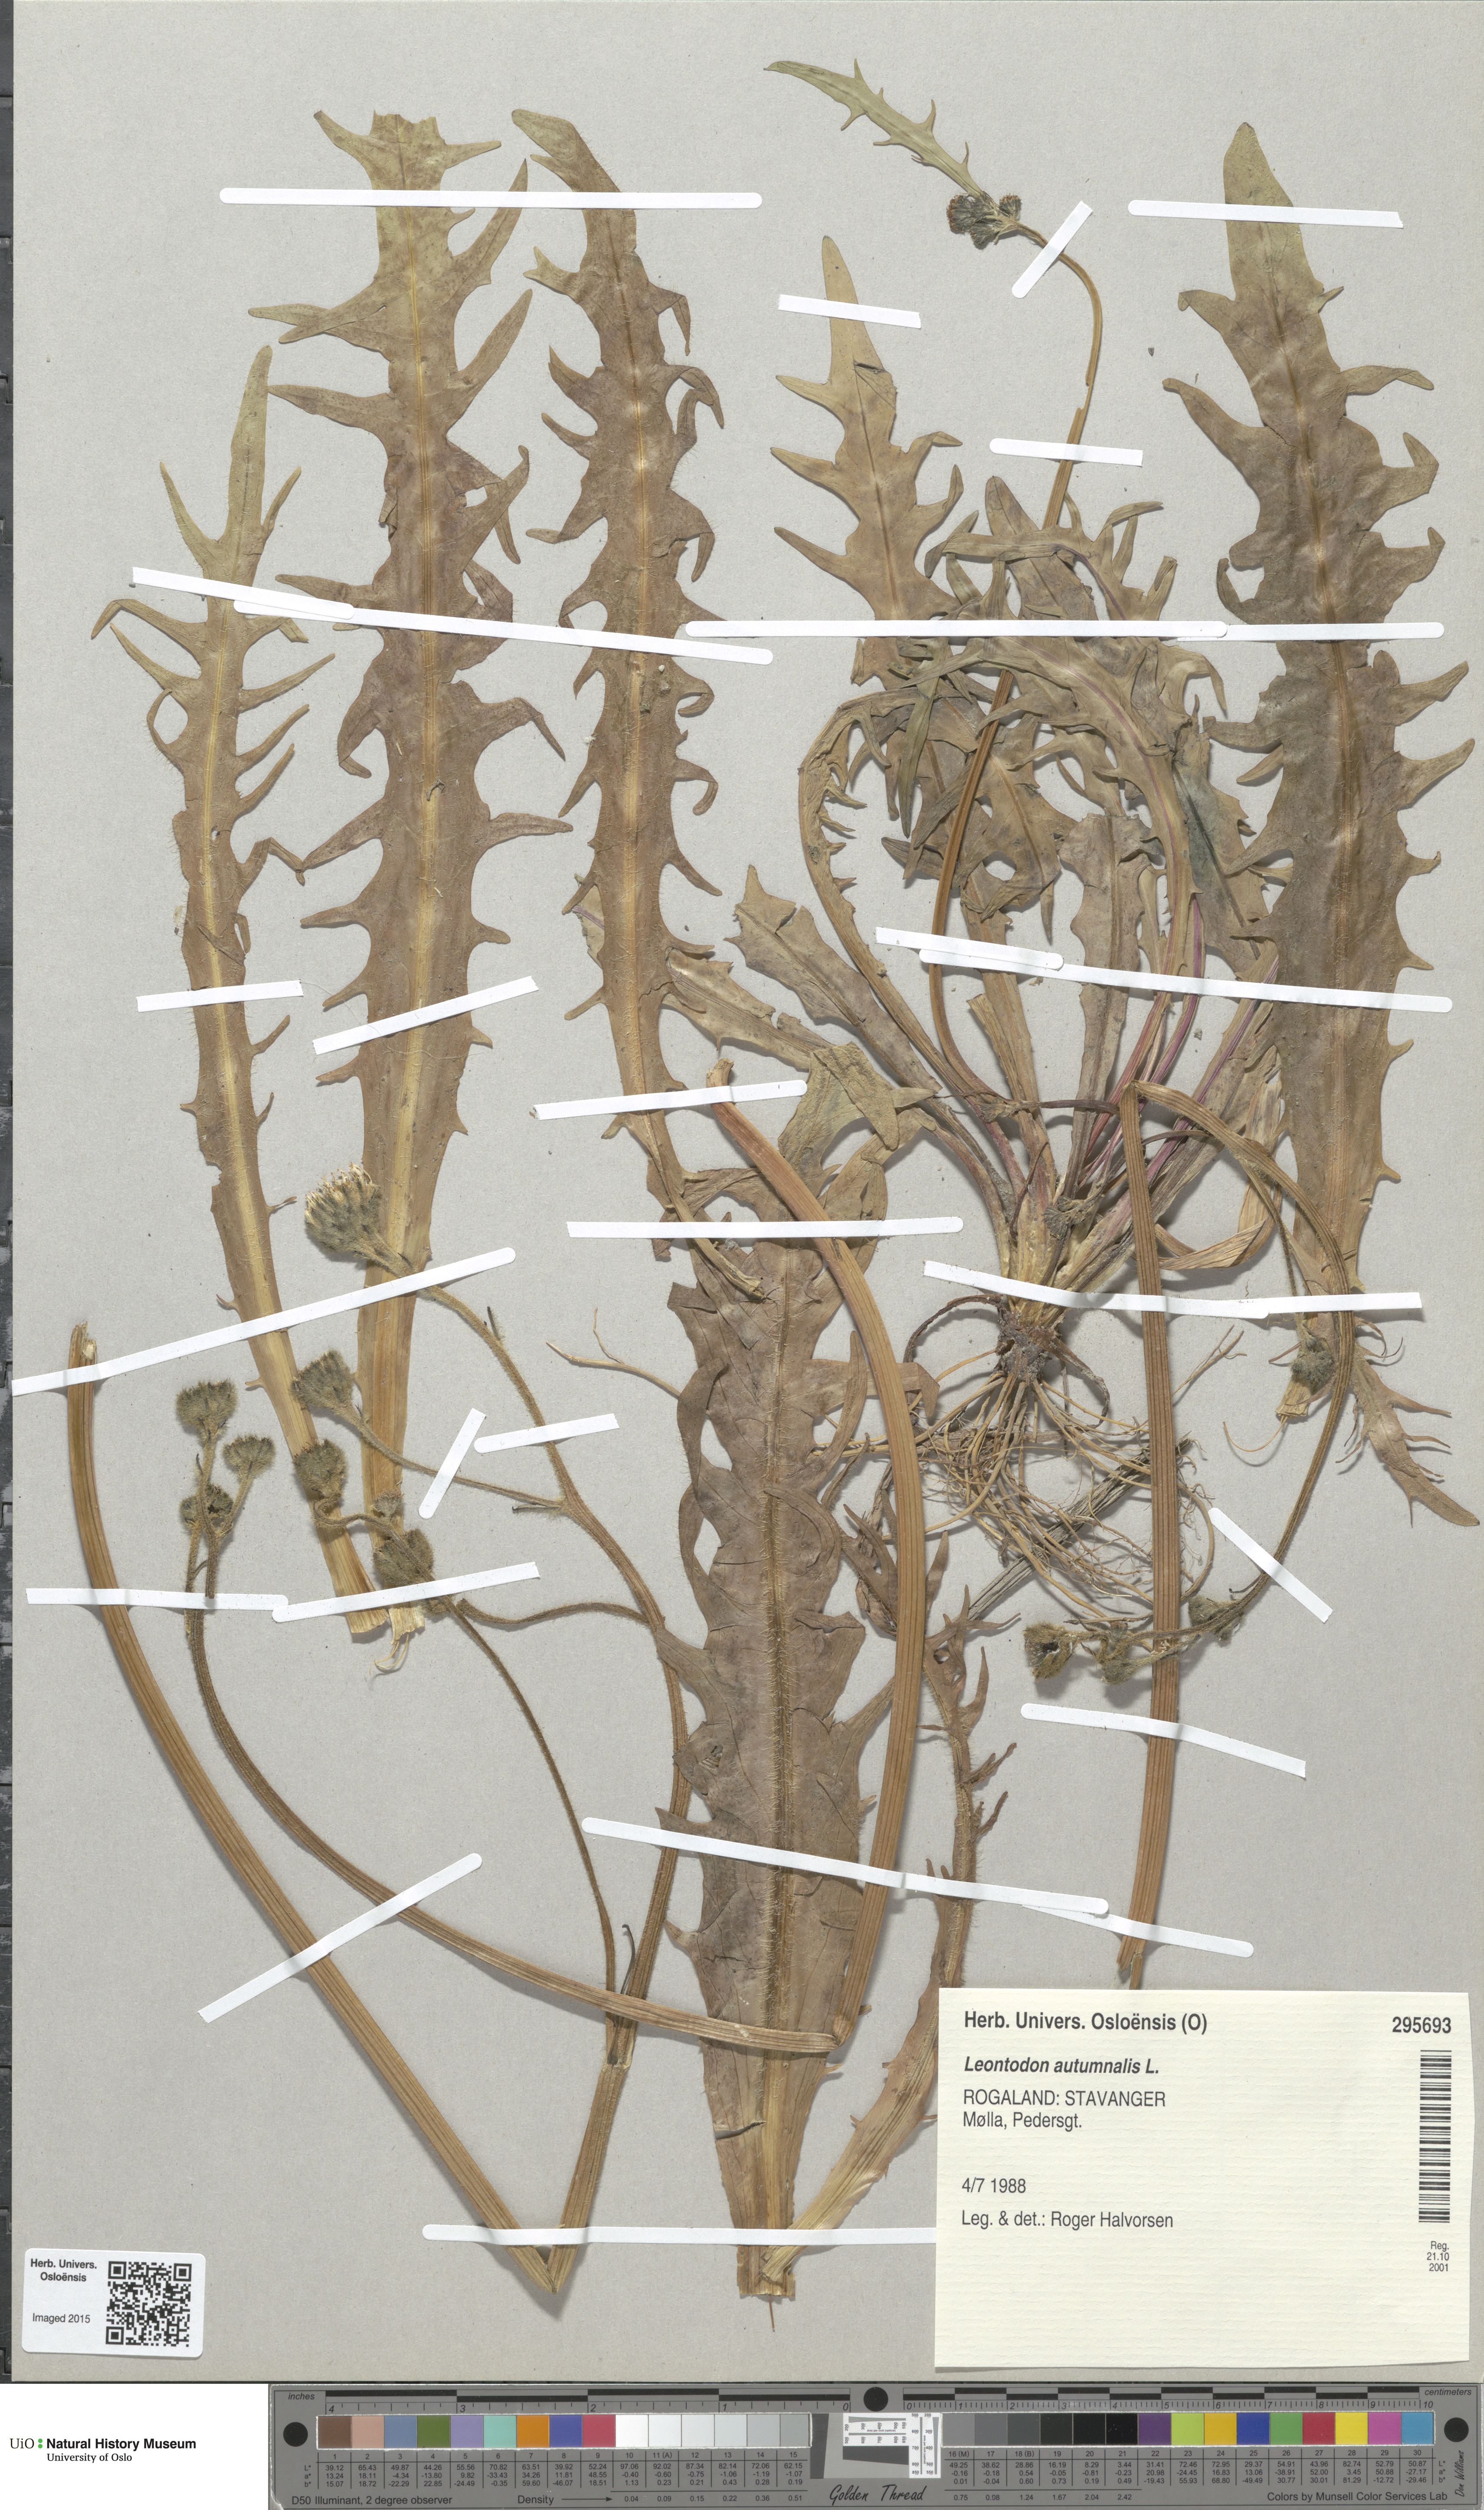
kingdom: Plantae
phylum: Tracheophyta
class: Magnoliopsida
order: Asterales
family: Asteraceae
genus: Scorzoneroides
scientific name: Scorzoneroides autumnalis
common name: Autumn hawkbit
